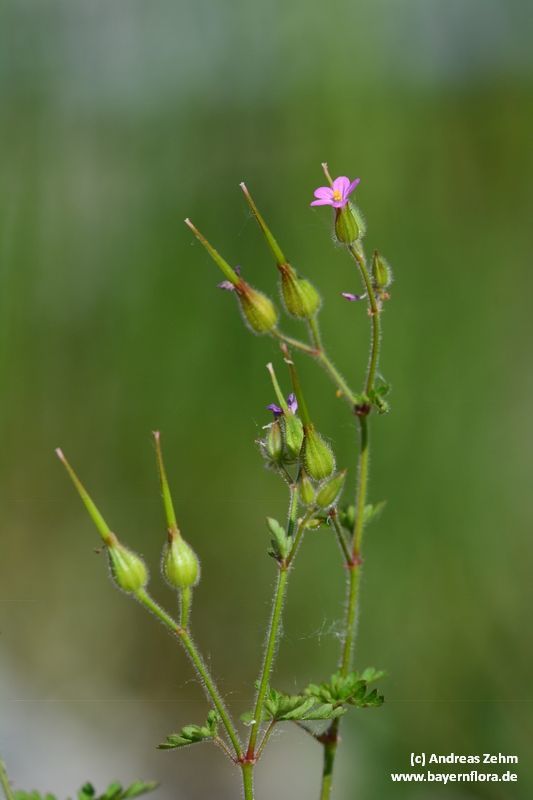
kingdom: Plantae
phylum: Tracheophyta
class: Magnoliopsida
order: Geraniales
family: Geraniaceae
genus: Geranium
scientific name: Geranium purpureum
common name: Little-robin
